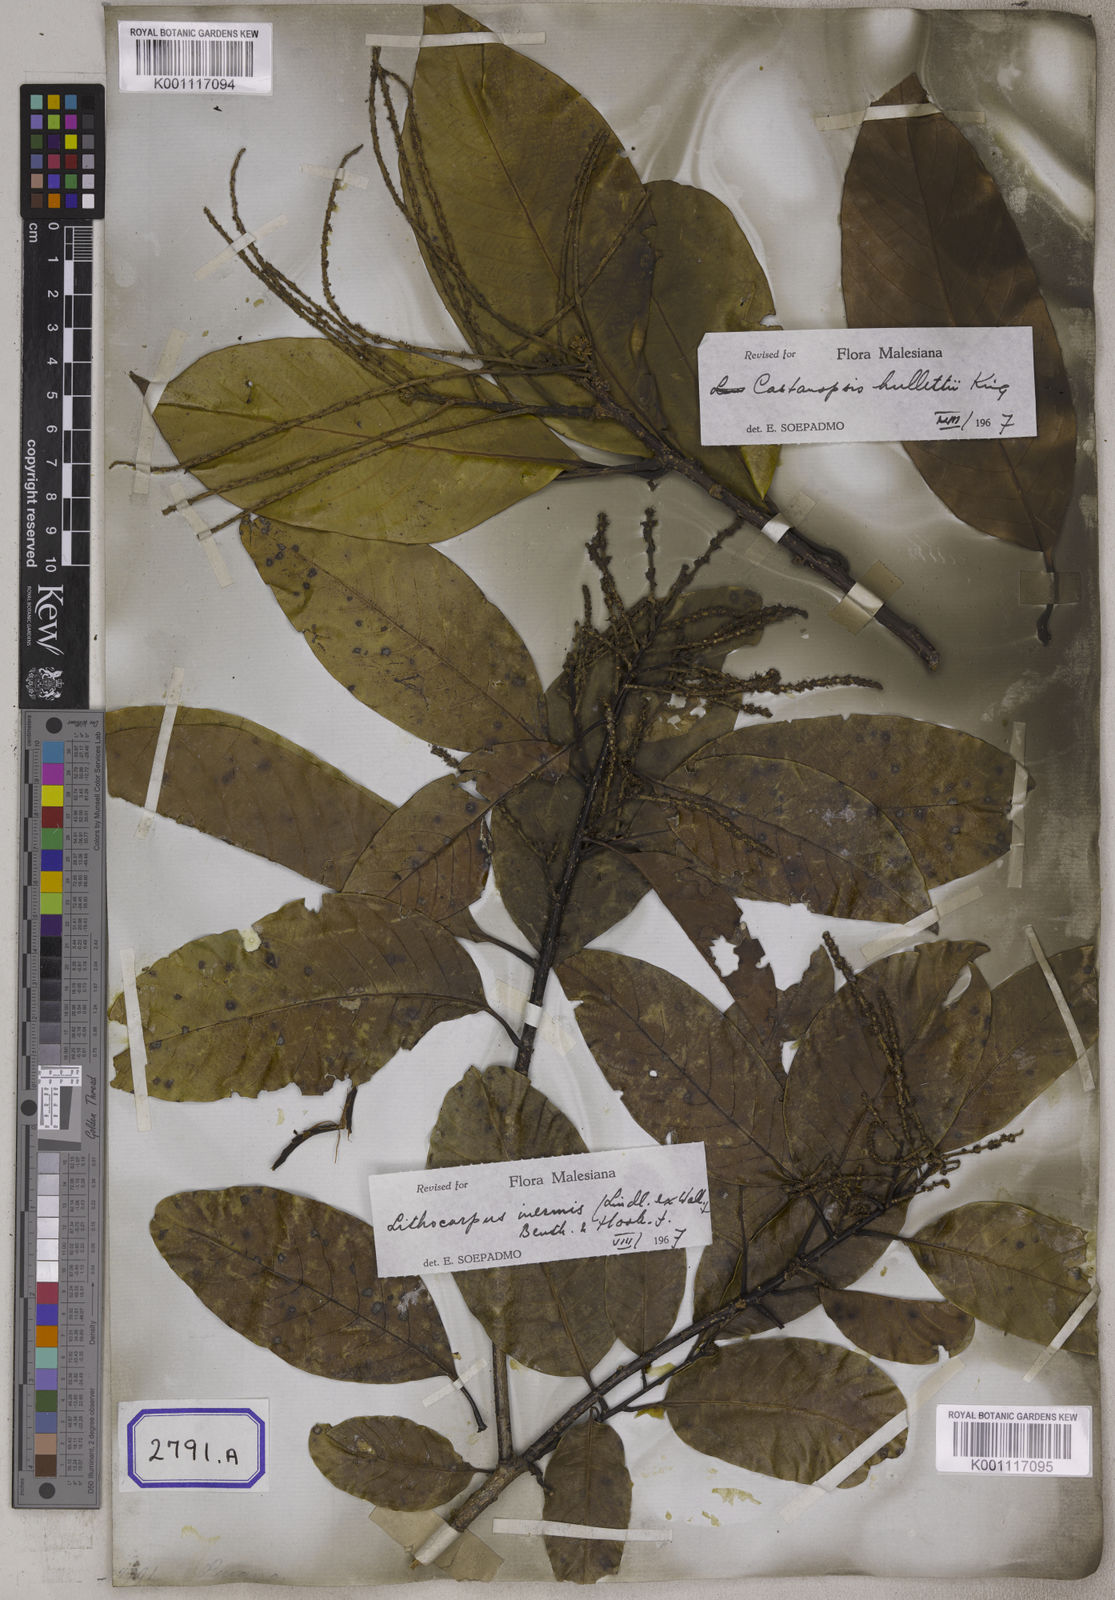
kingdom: Plantae
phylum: Tracheophyta
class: Magnoliopsida
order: Fagales
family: Fagaceae
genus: Castanopsis
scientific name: Castanopsis inermis
